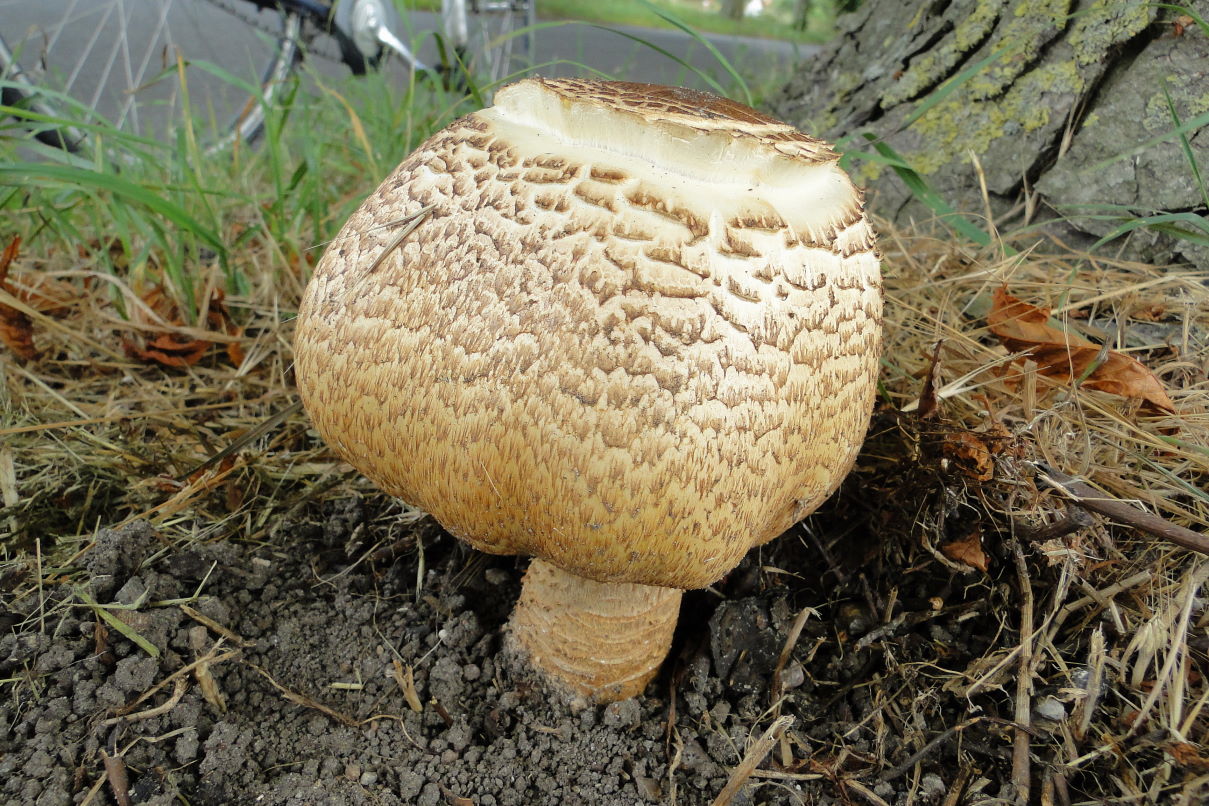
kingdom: Fungi
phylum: Basidiomycota
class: Agaricomycetes
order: Agaricales
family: Agaricaceae
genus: Agaricus
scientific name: Agaricus augustus
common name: prægtig champignon
